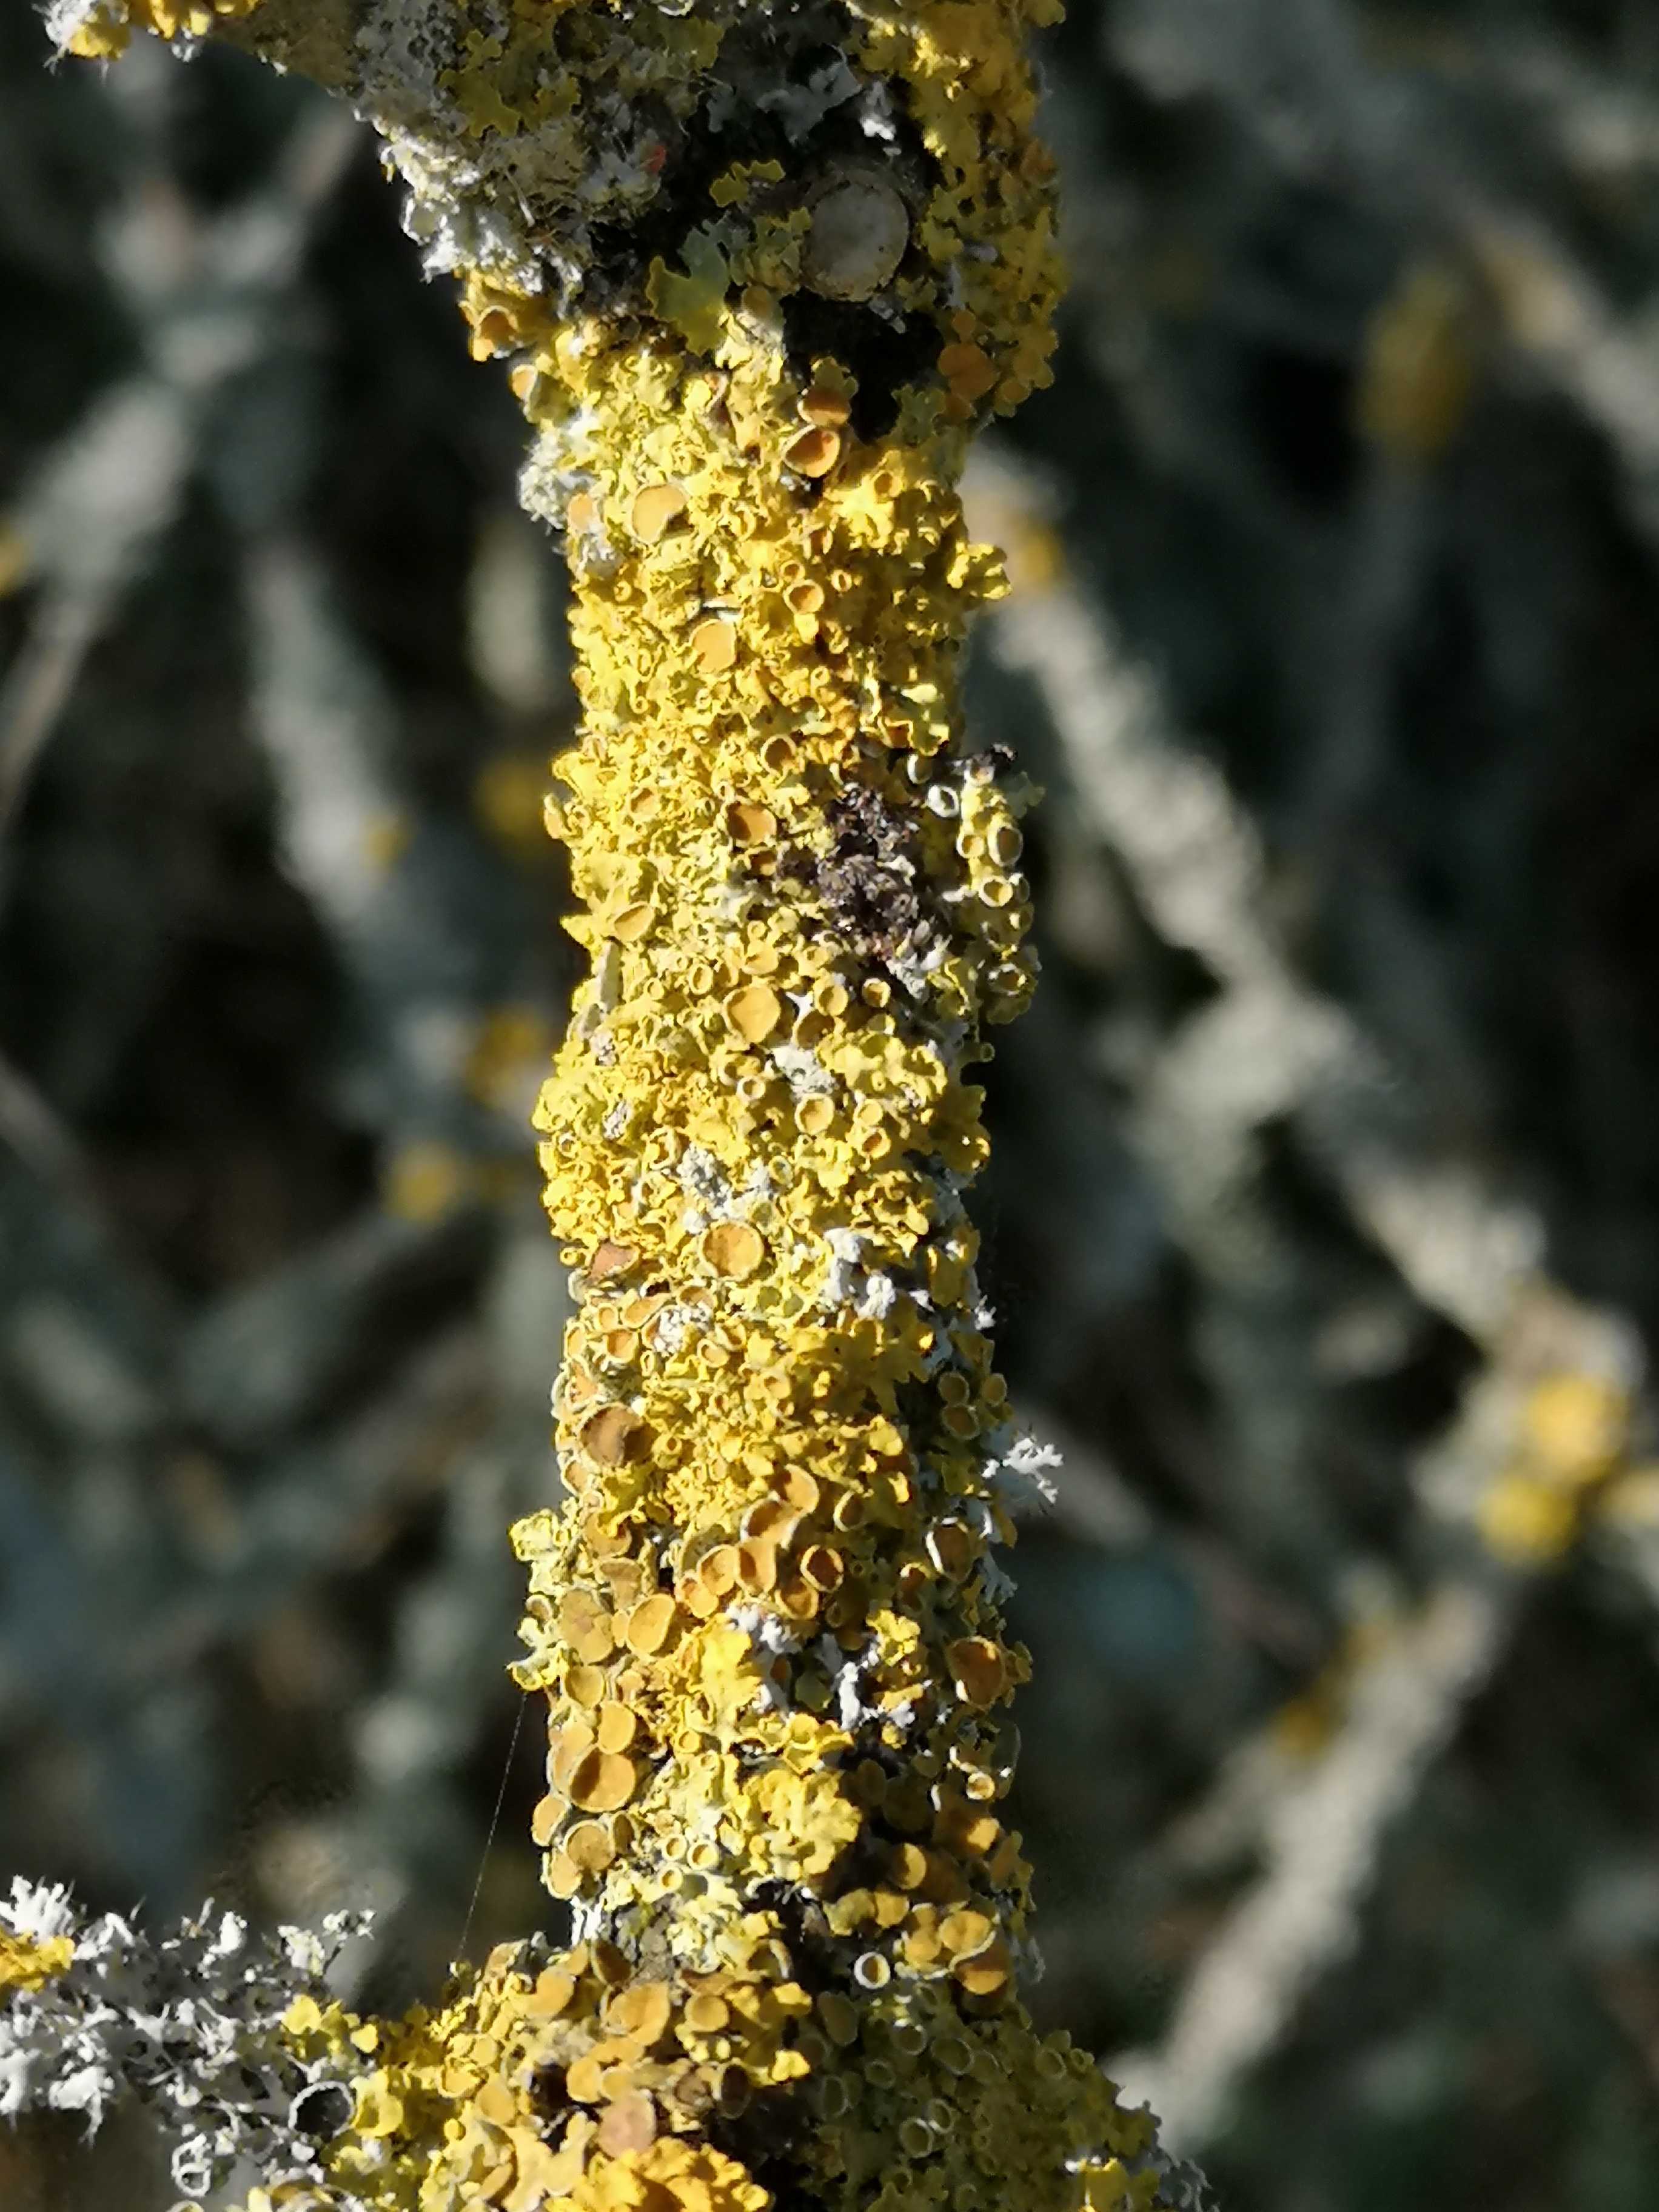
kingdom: Fungi
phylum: Ascomycota
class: Lecanoromycetes
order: Teloschistales
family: Teloschistaceae
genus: Xanthoria
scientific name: Xanthoria parietina
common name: almindelig væggelav
